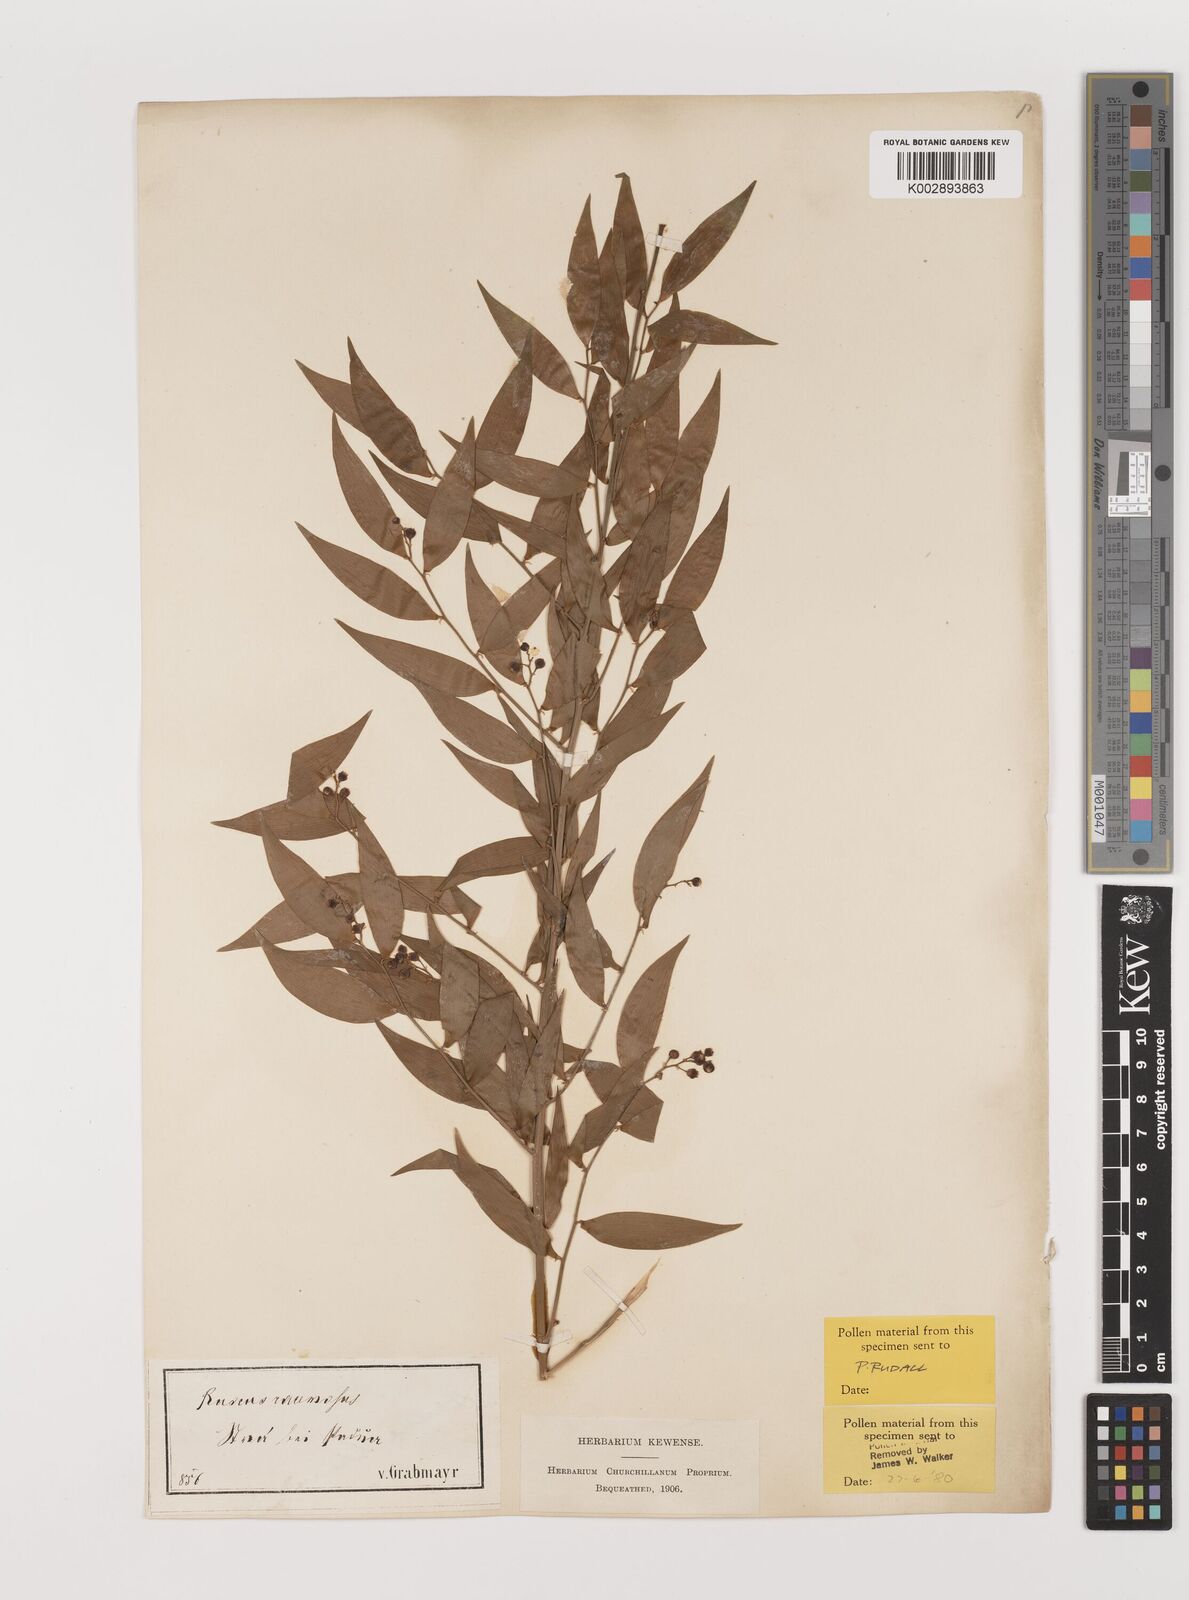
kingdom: Plantae
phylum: Tracheophyta
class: Liliopsida
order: Asparagales
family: Asparagaceae
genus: Danae
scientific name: Danae racemosa
